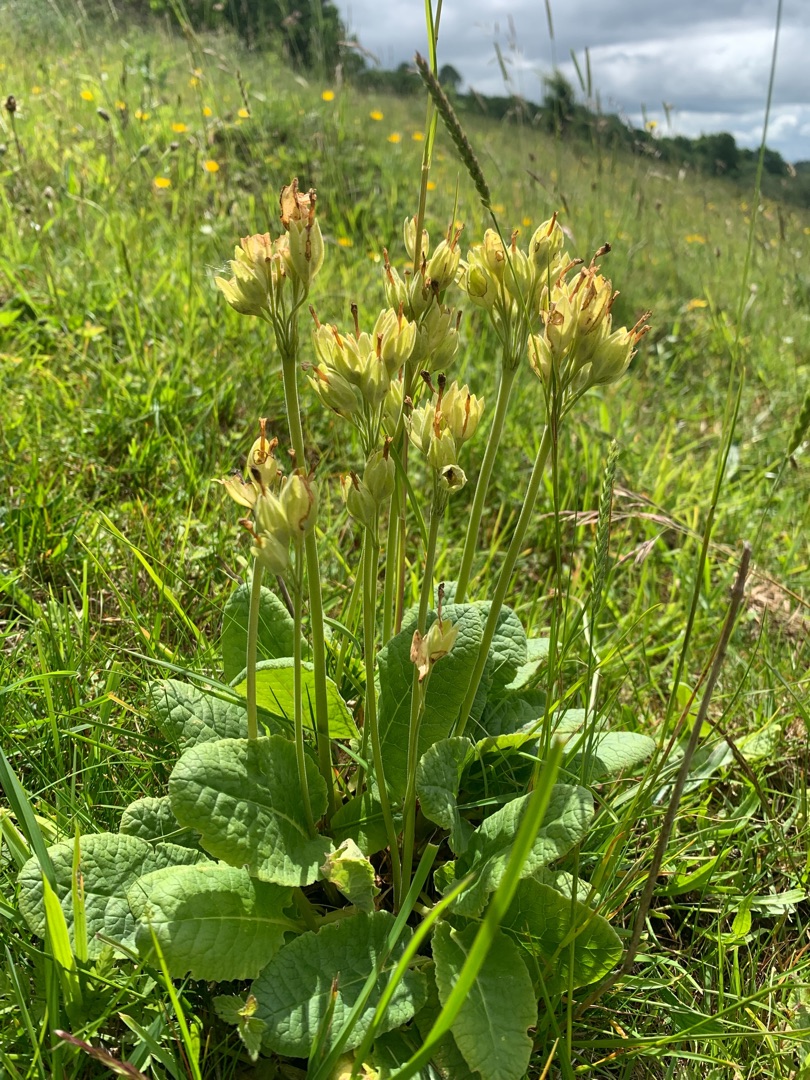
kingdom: Plantae
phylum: Tracheophyta
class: Magnoliopsida
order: Ericales
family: Primulaceae
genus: Primula
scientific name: Primula veris
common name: Hulkravet kodriver
